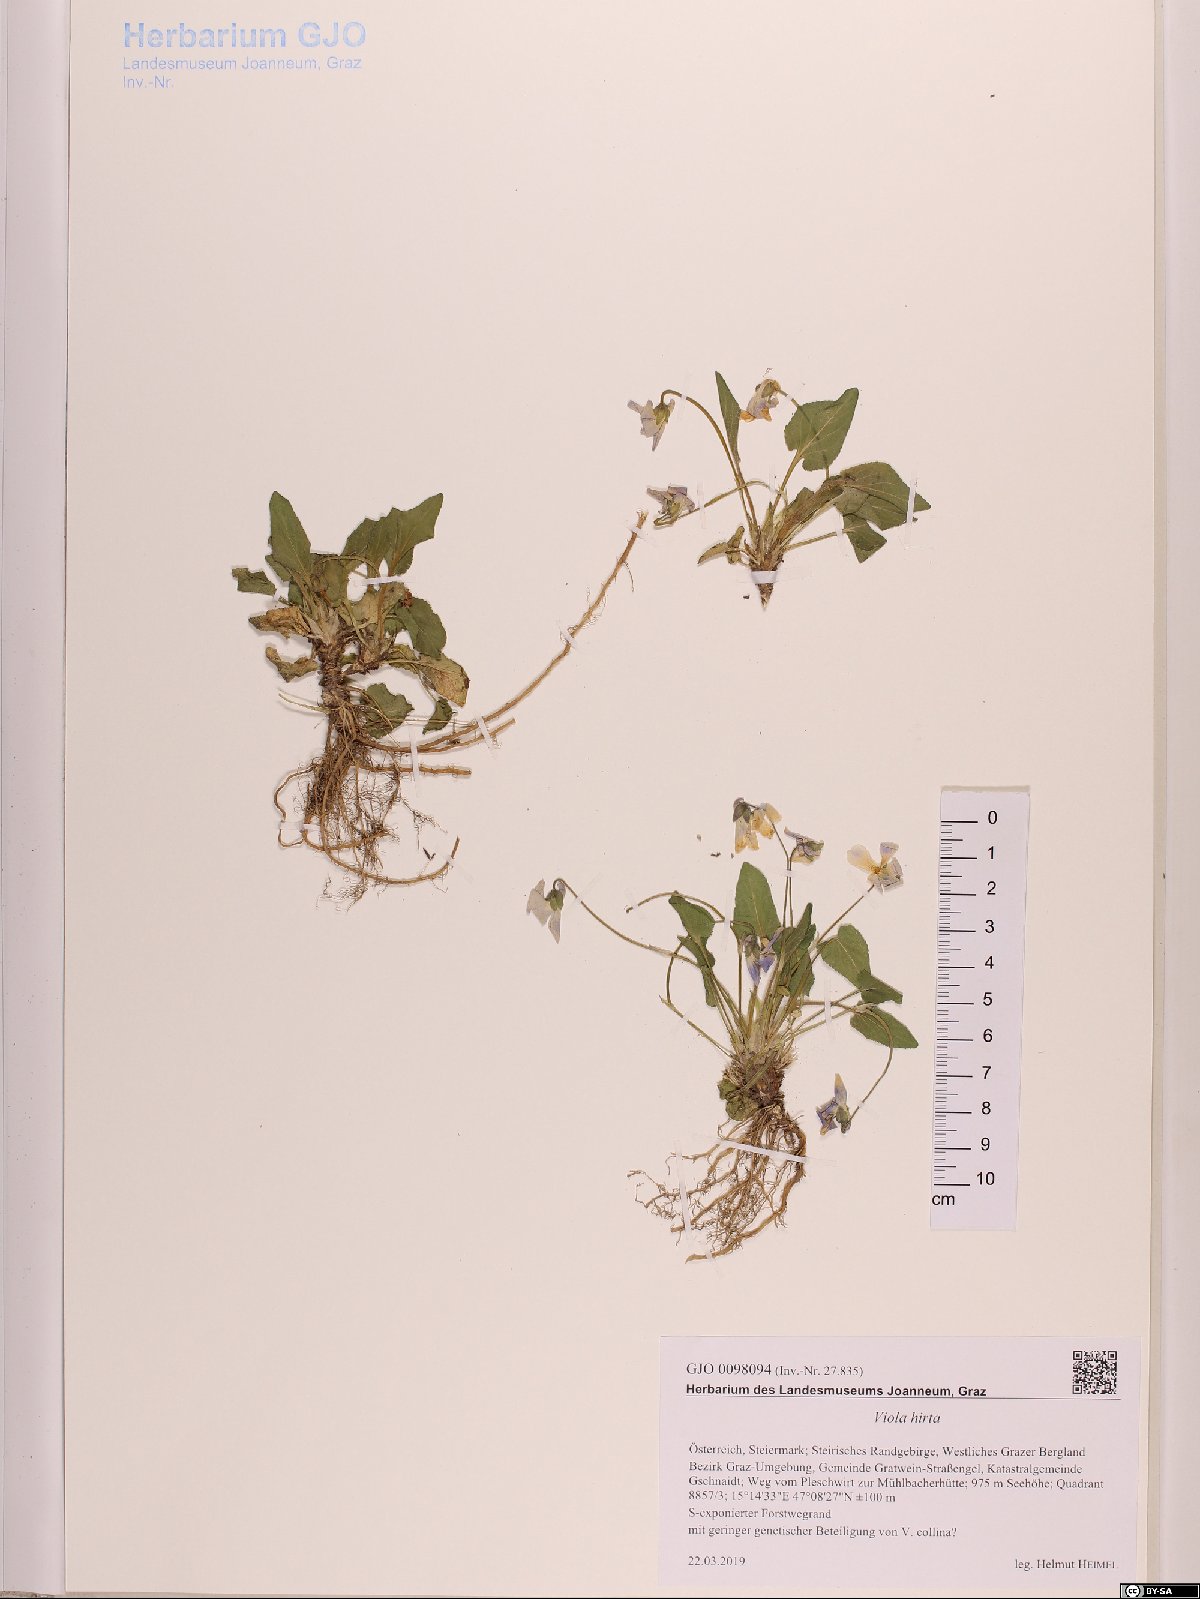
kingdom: Plantae
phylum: Tracheophyta
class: Magnoliopsida
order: Malpighiales
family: Violaceae
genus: Viola
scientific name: Viola hirta
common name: Hairy violet
